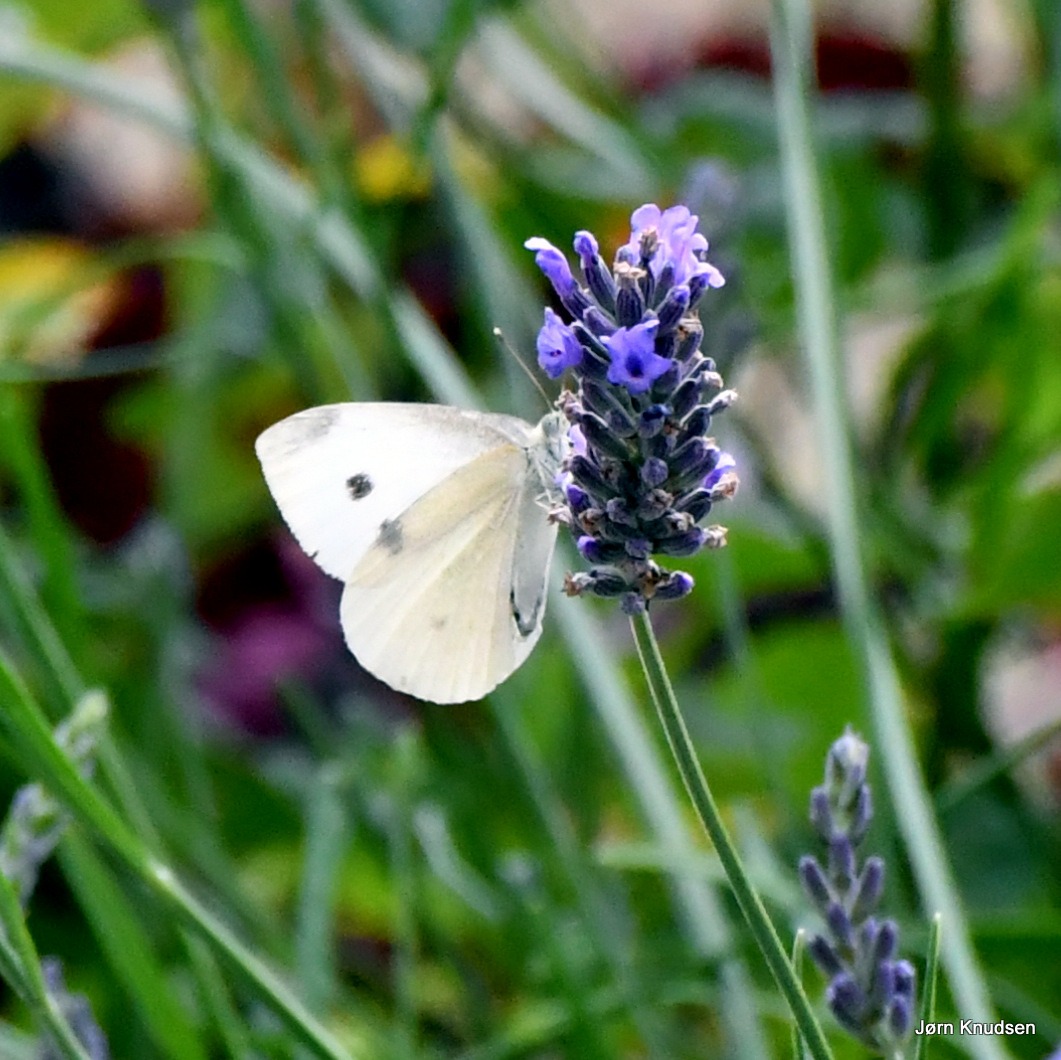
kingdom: Animalia
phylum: Arthropoda
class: Insecta
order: Lepidoptera
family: Pieridae
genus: Pieris
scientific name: Pieris rapae
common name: Lille kålsommerfugl
